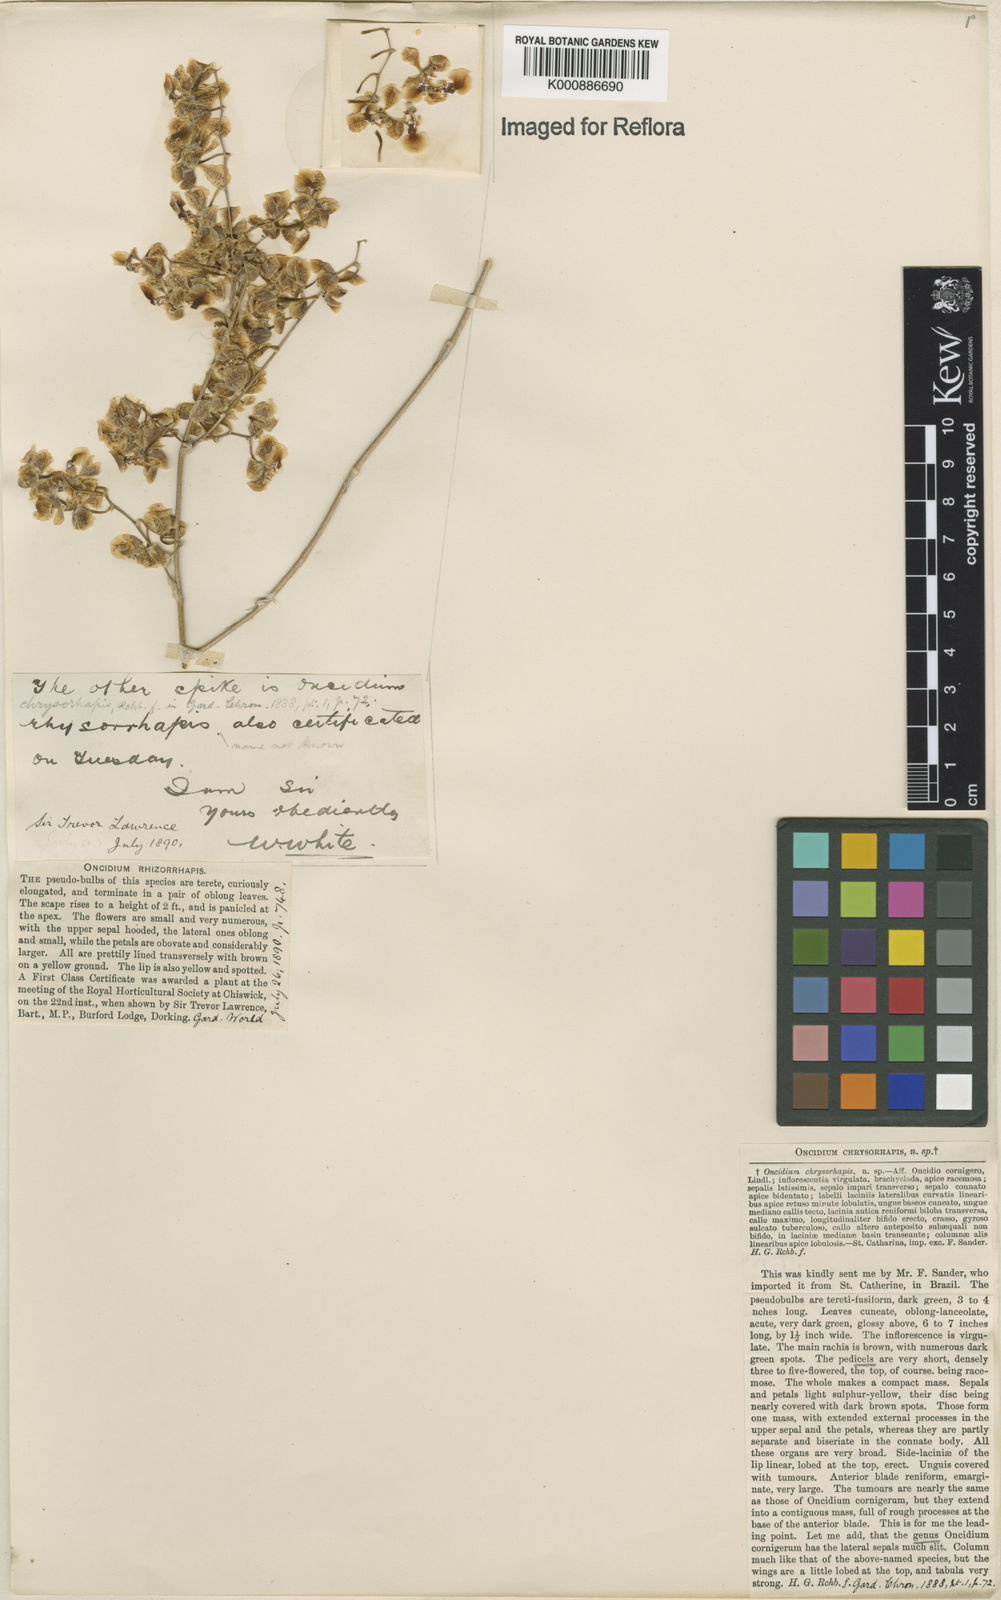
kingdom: Plantae
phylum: Tracheophyta
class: Liliopsida
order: Asparagales
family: Orchidaceae
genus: Gomesa
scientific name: Gomesa cornigera
